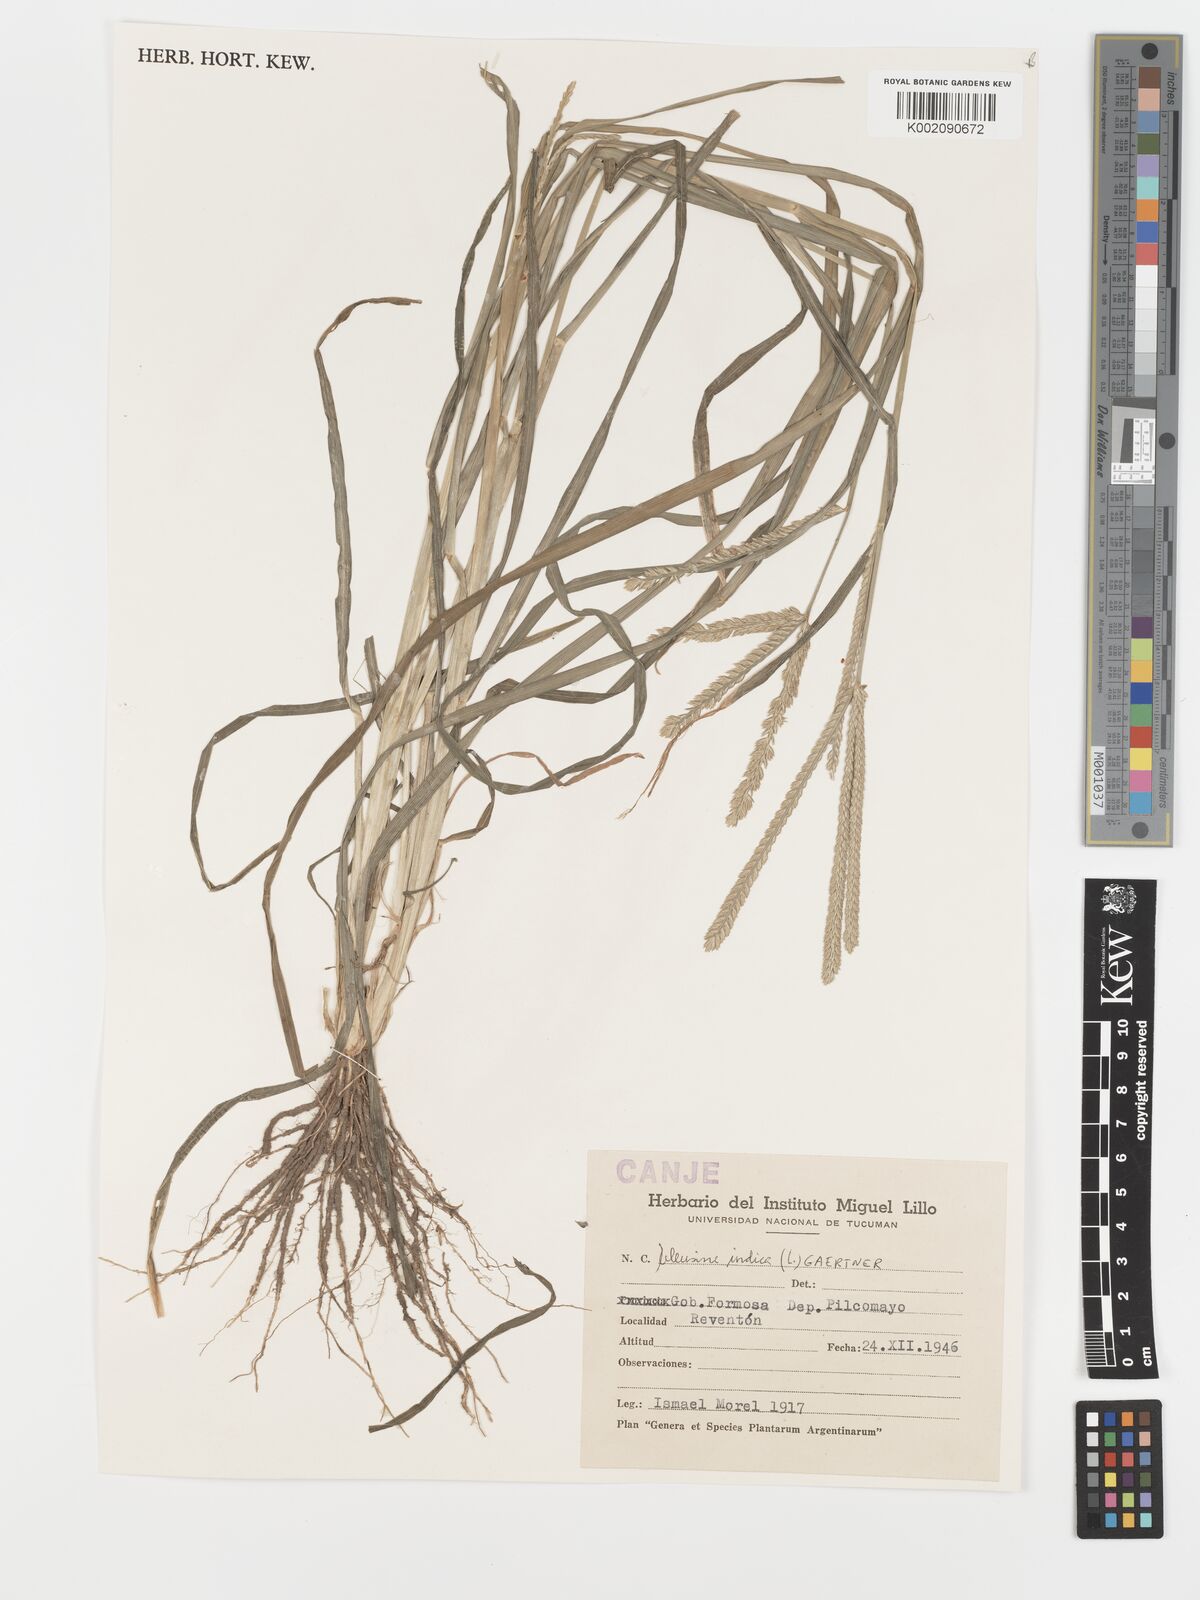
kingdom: Plantae
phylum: Tracheophyta
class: Liliopsida
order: Poales
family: Poaceae
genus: Eleusine
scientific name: Eleusine indica
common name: Yard-grass
